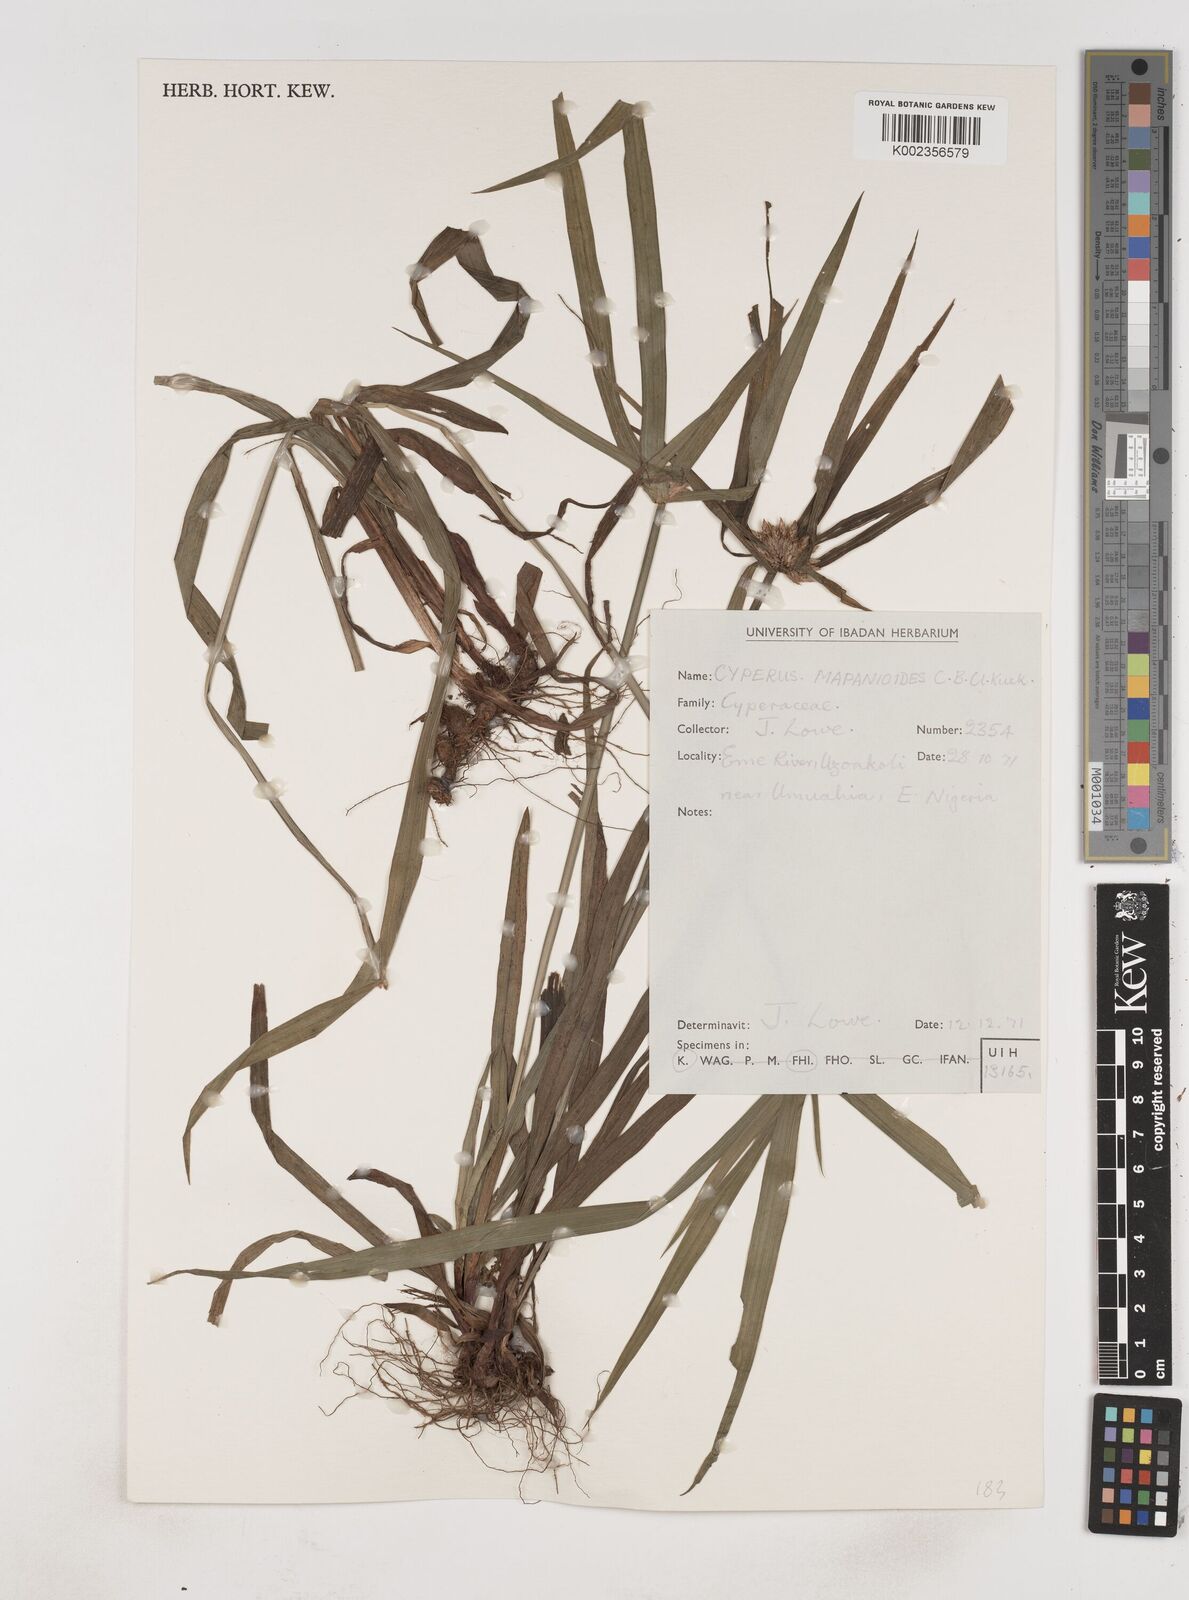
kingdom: Plantae
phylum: Tracheophyta
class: Liliopsida
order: Poales
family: Cyperaceae
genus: Cyperus
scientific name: Cyperus mapanioides
